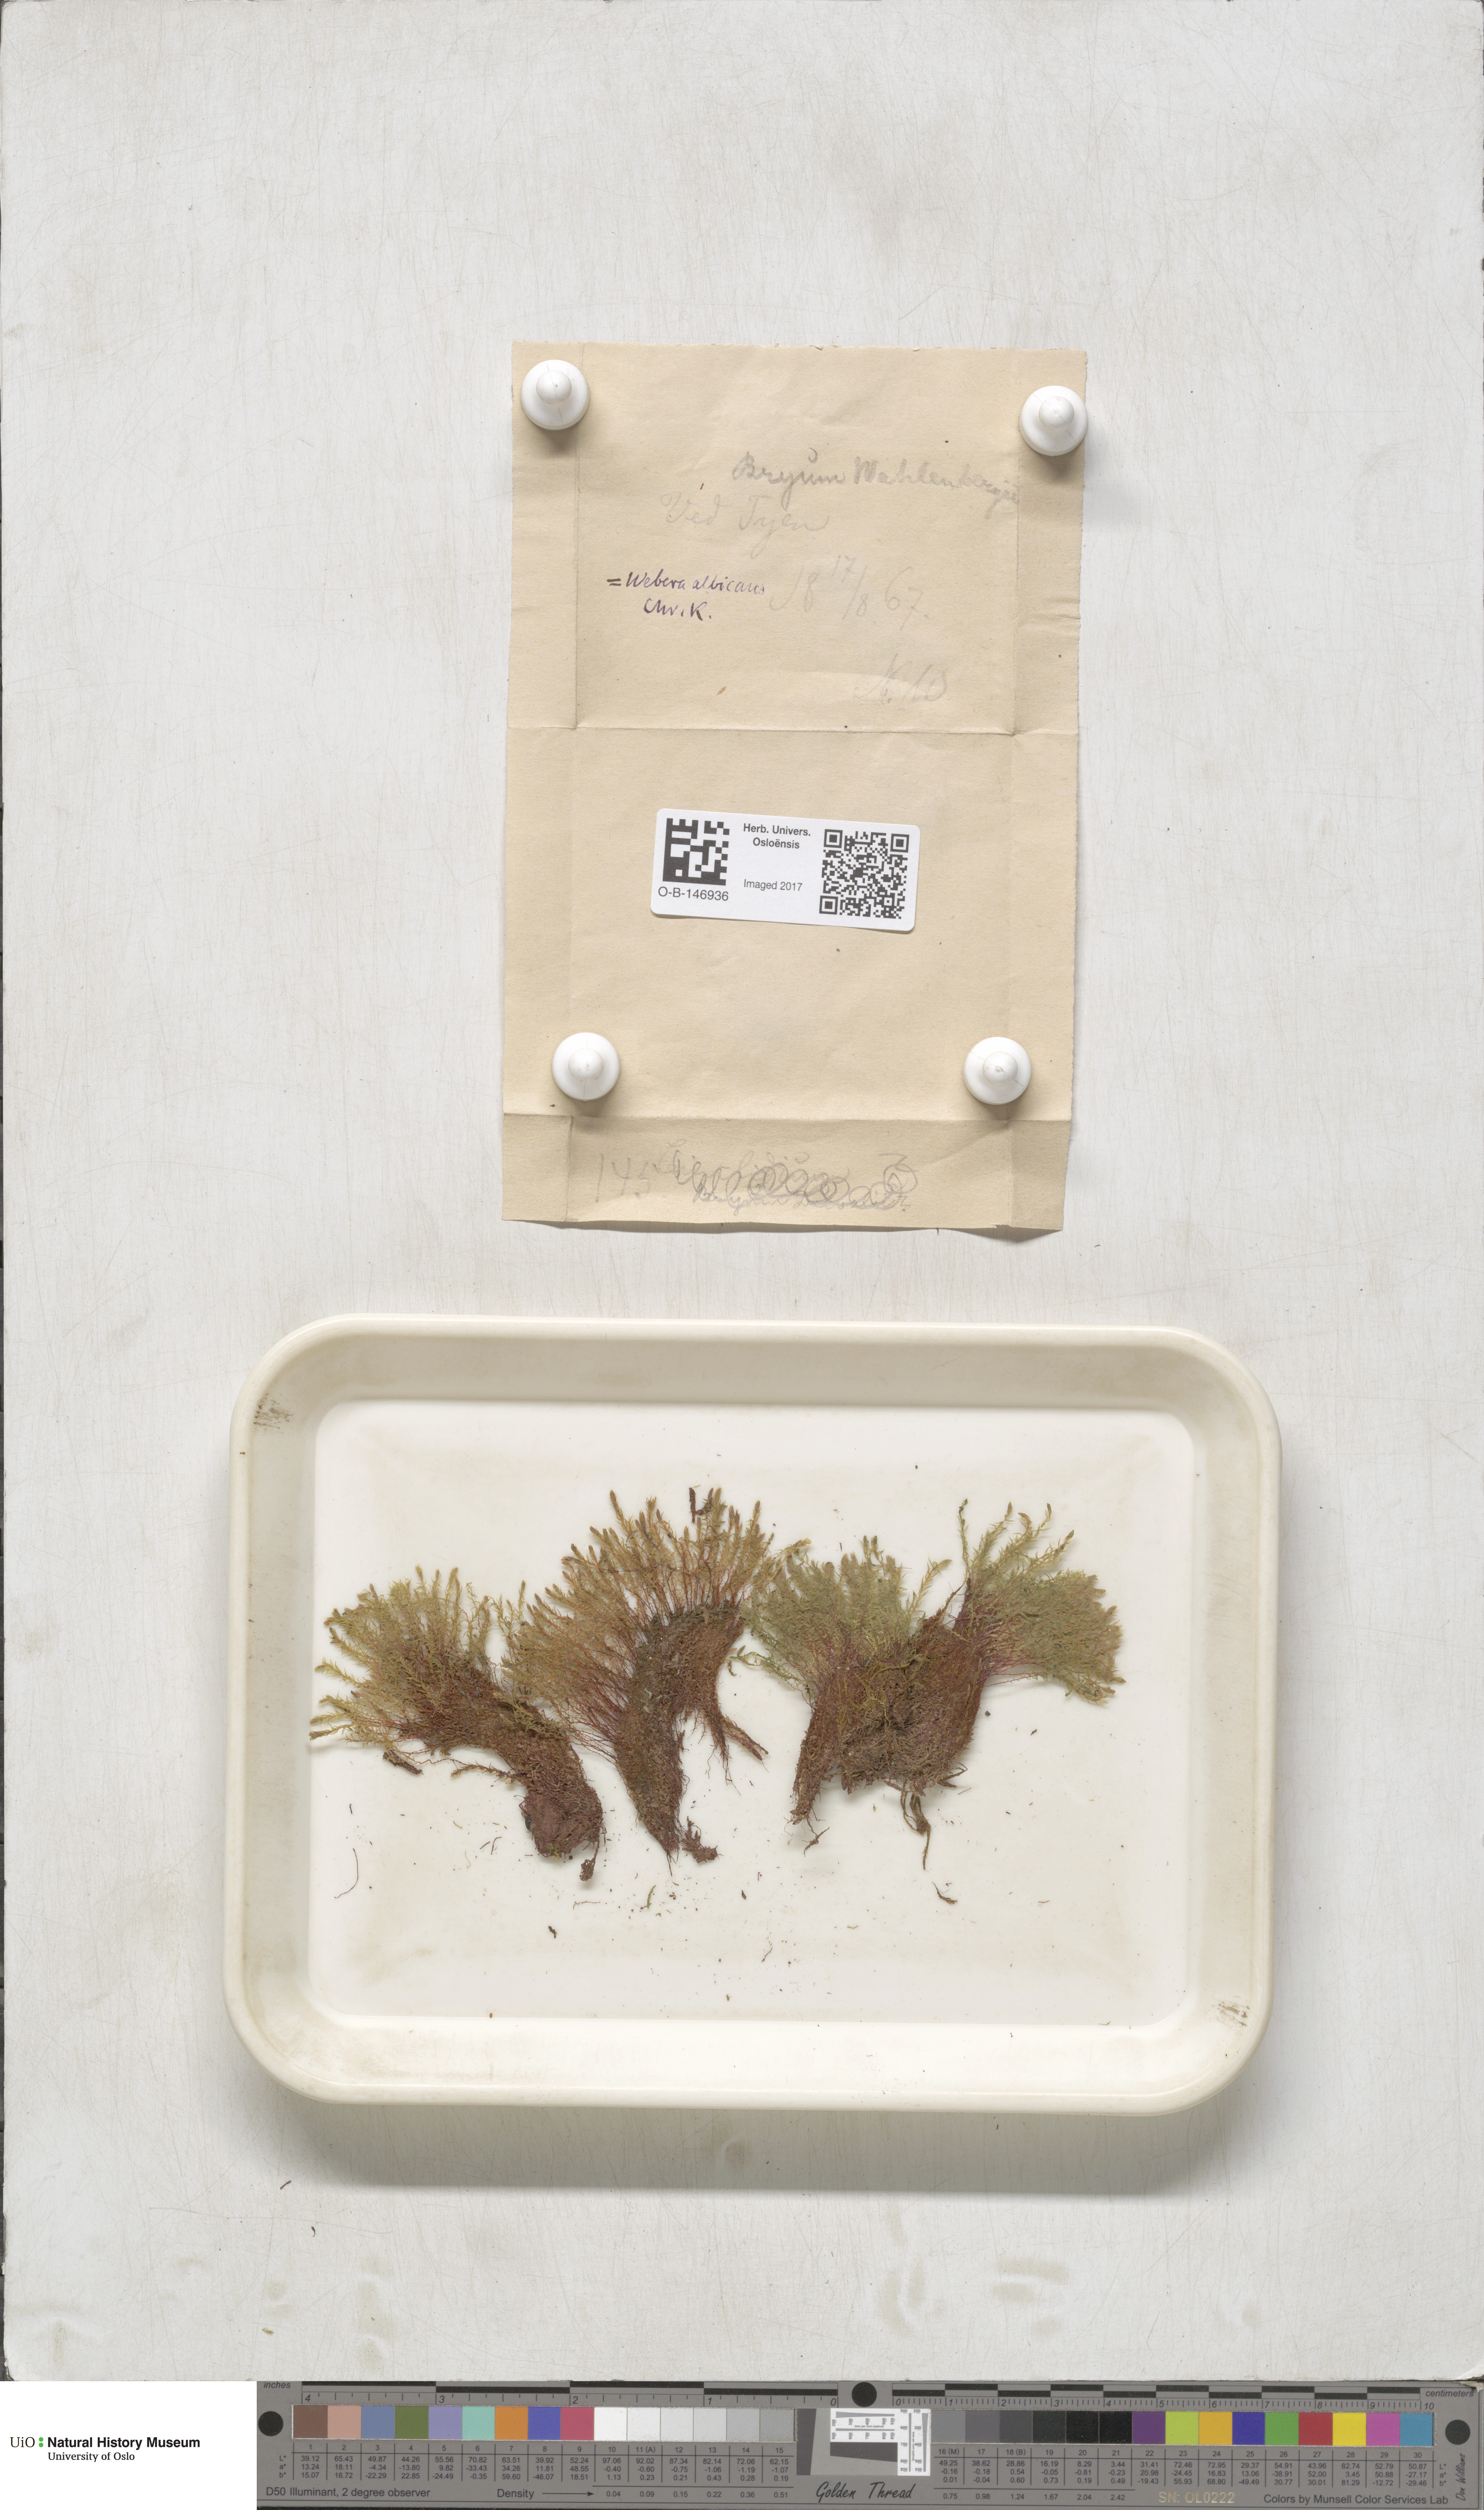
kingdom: Plantae
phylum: Bryophyta
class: Bryopsida
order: Bryales
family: Mniaceae
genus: Pohlia
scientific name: Pohlia wahlenbergii
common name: Wahlenberg's nodding moss
